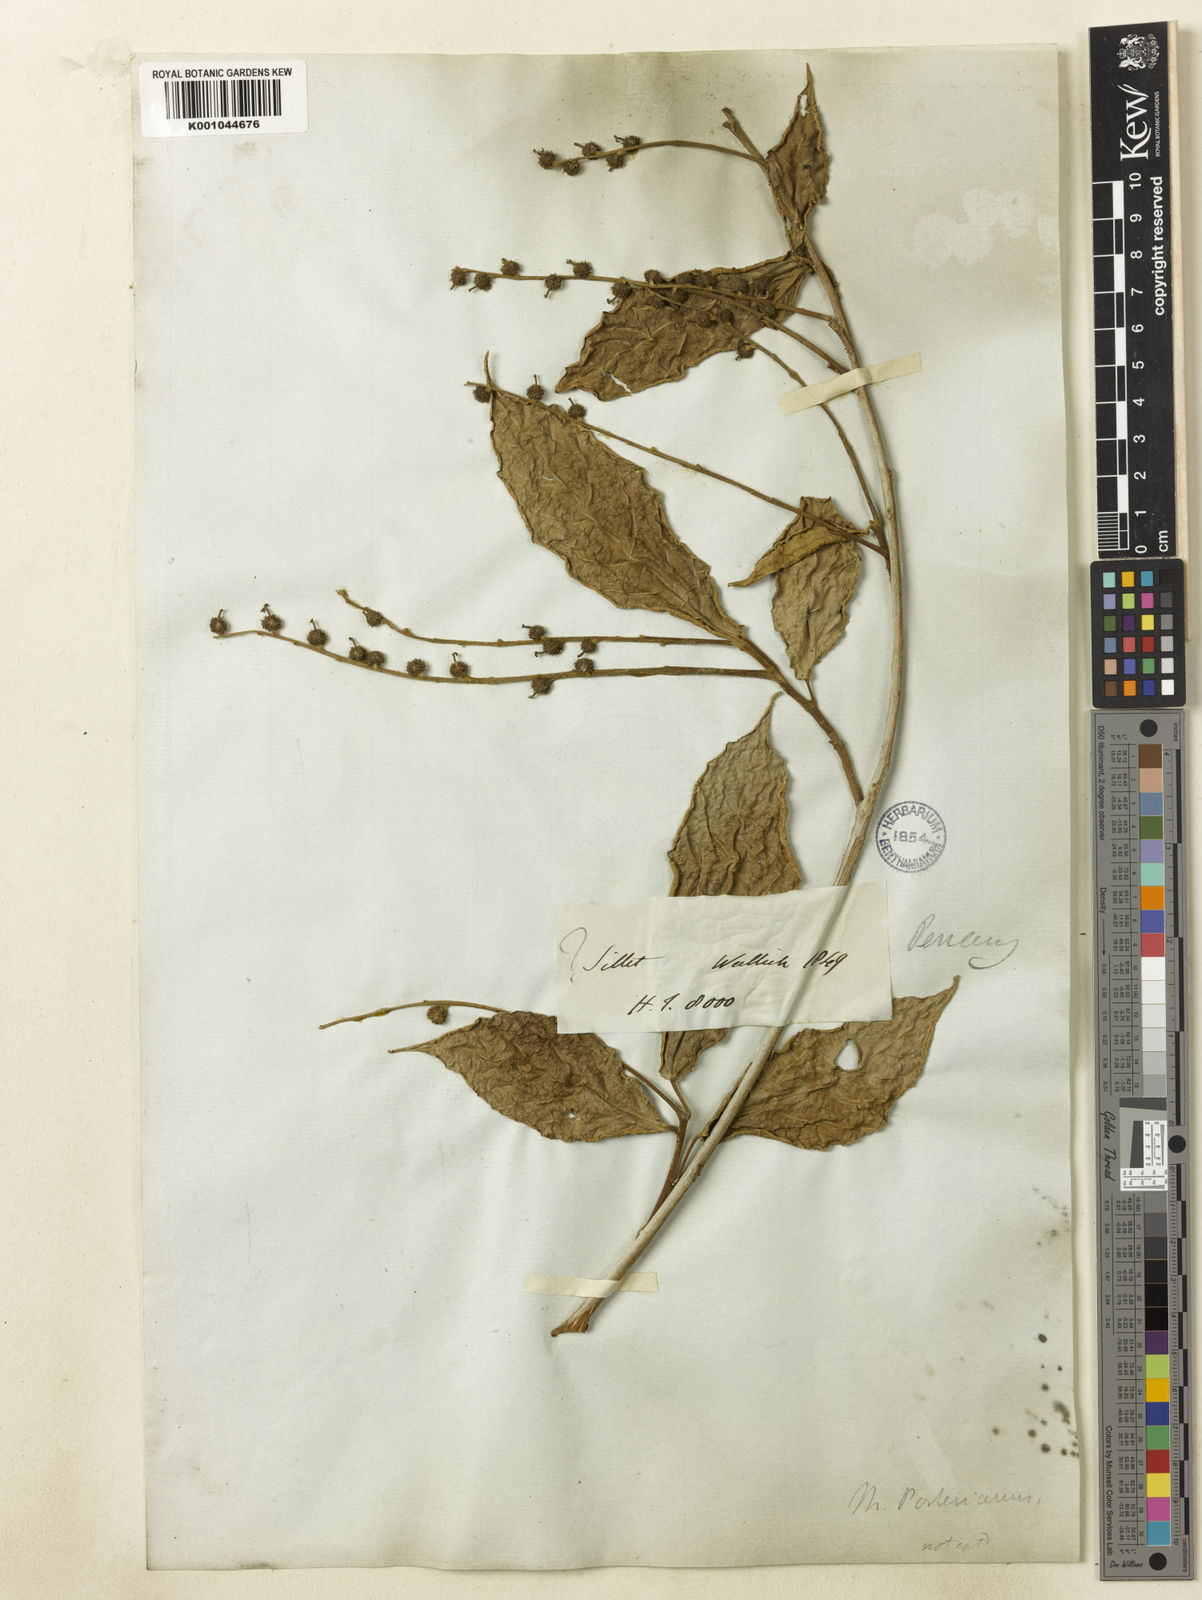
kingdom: Plantae
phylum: Tracheophyta
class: Magnoliopsida
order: Malpighiales
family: Euphorbiaceae
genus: Mallotus
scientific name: Mallotus peltatus
